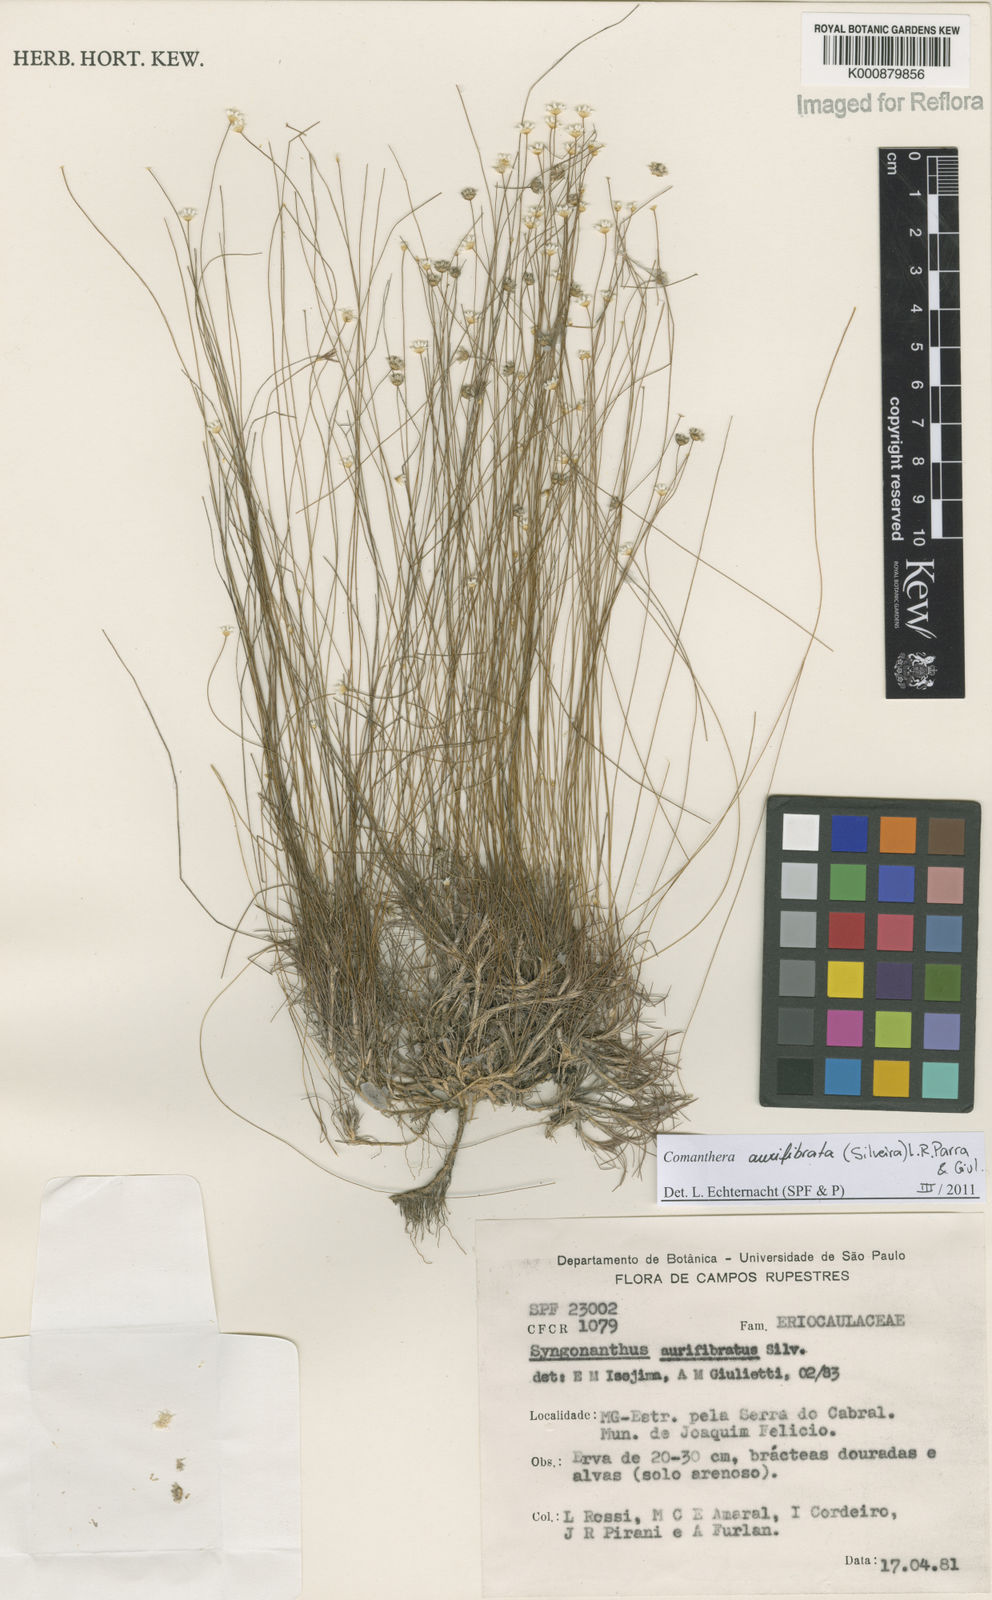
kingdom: Plantae
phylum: Tracheophyta
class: Liliopsida
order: Poales
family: Eriocaulaceae
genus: Comanthera
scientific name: Comanthera aurifibrata
